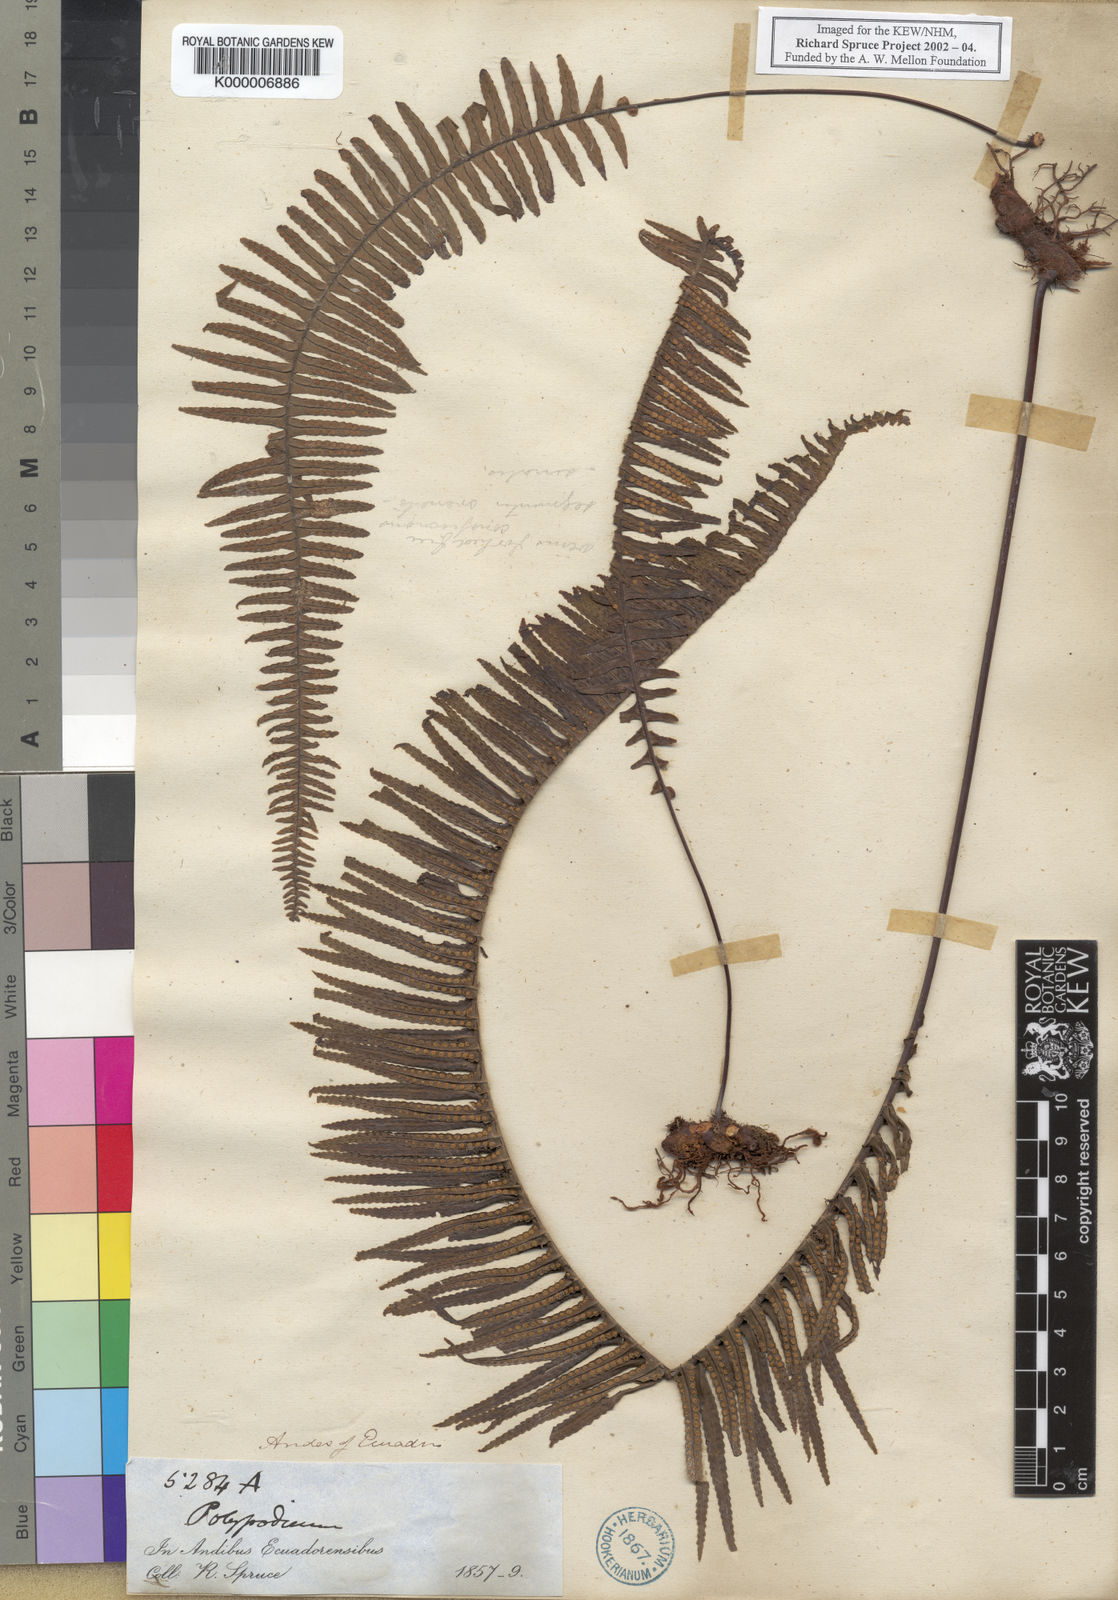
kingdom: Plantae
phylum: Tracheophyta
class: Polypodiopsida
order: Polypodiales
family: Polypodiaceae
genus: Pecluma
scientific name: Pecluma camptophyllaria
